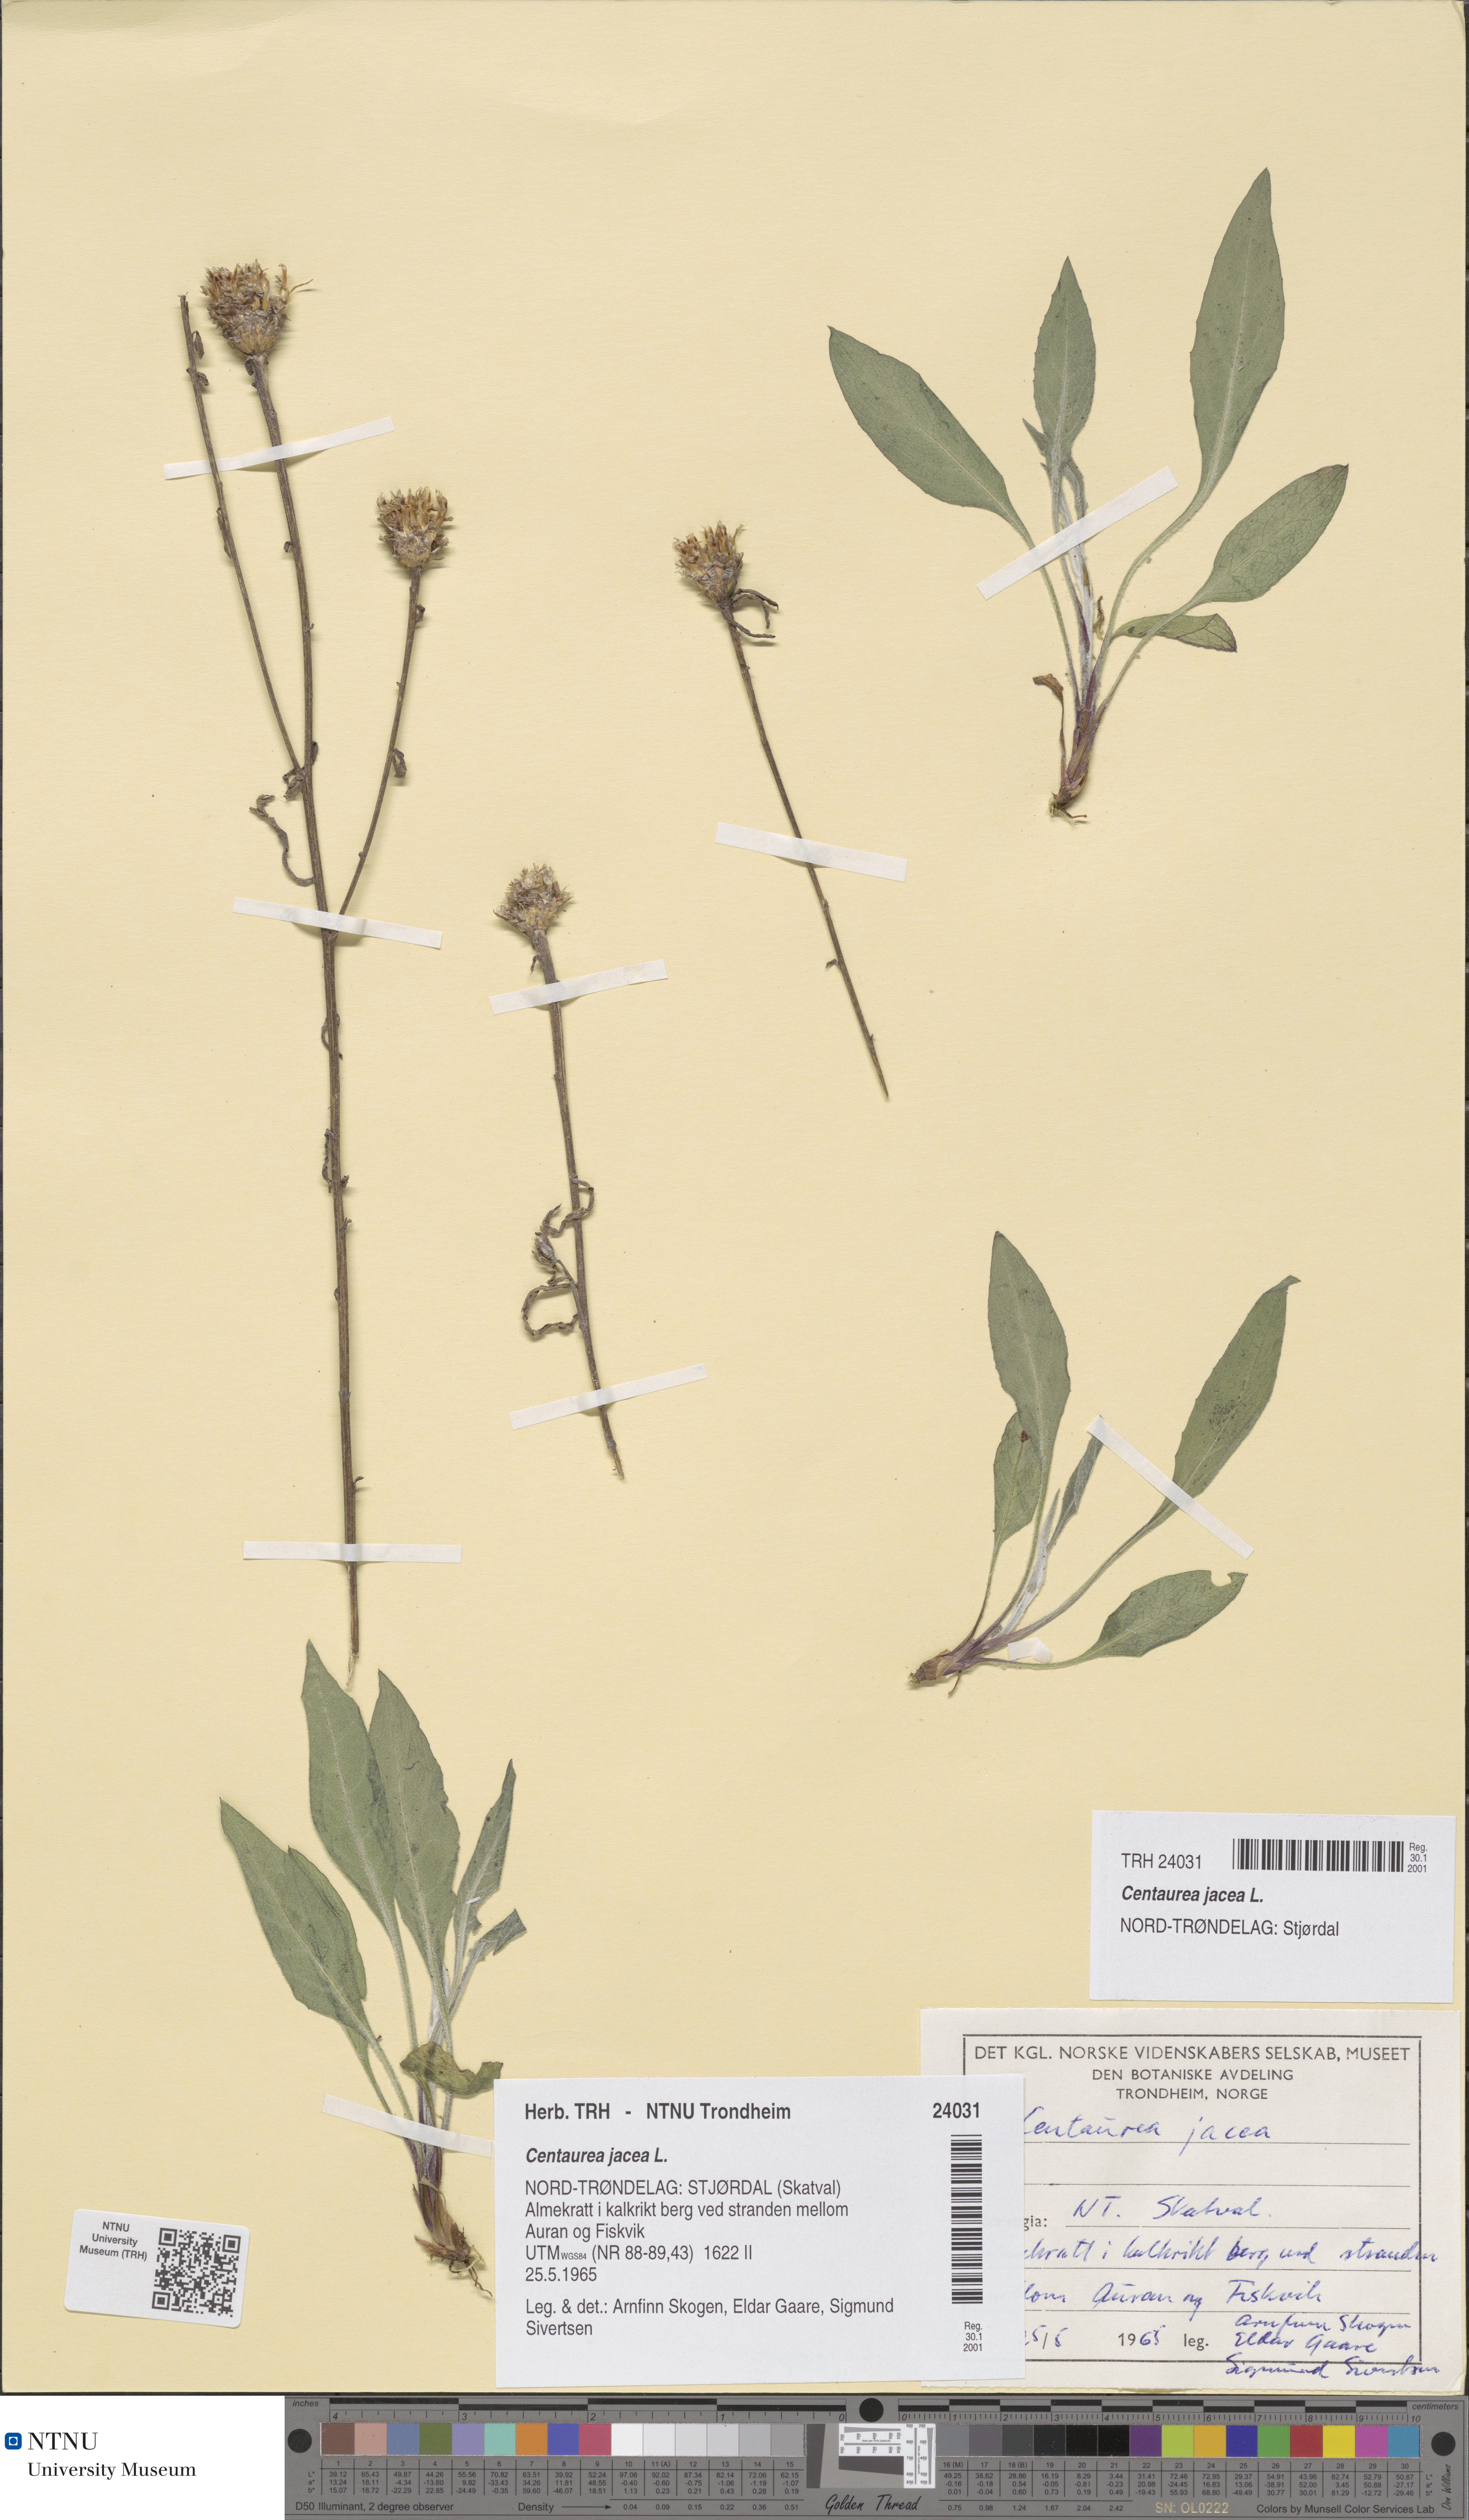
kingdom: Plantae
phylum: Tracheophyta
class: Magnoliopsida
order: Asterales
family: Asteraceae
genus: Centaurea
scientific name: Centaurea jacea
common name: Brown knapweed
